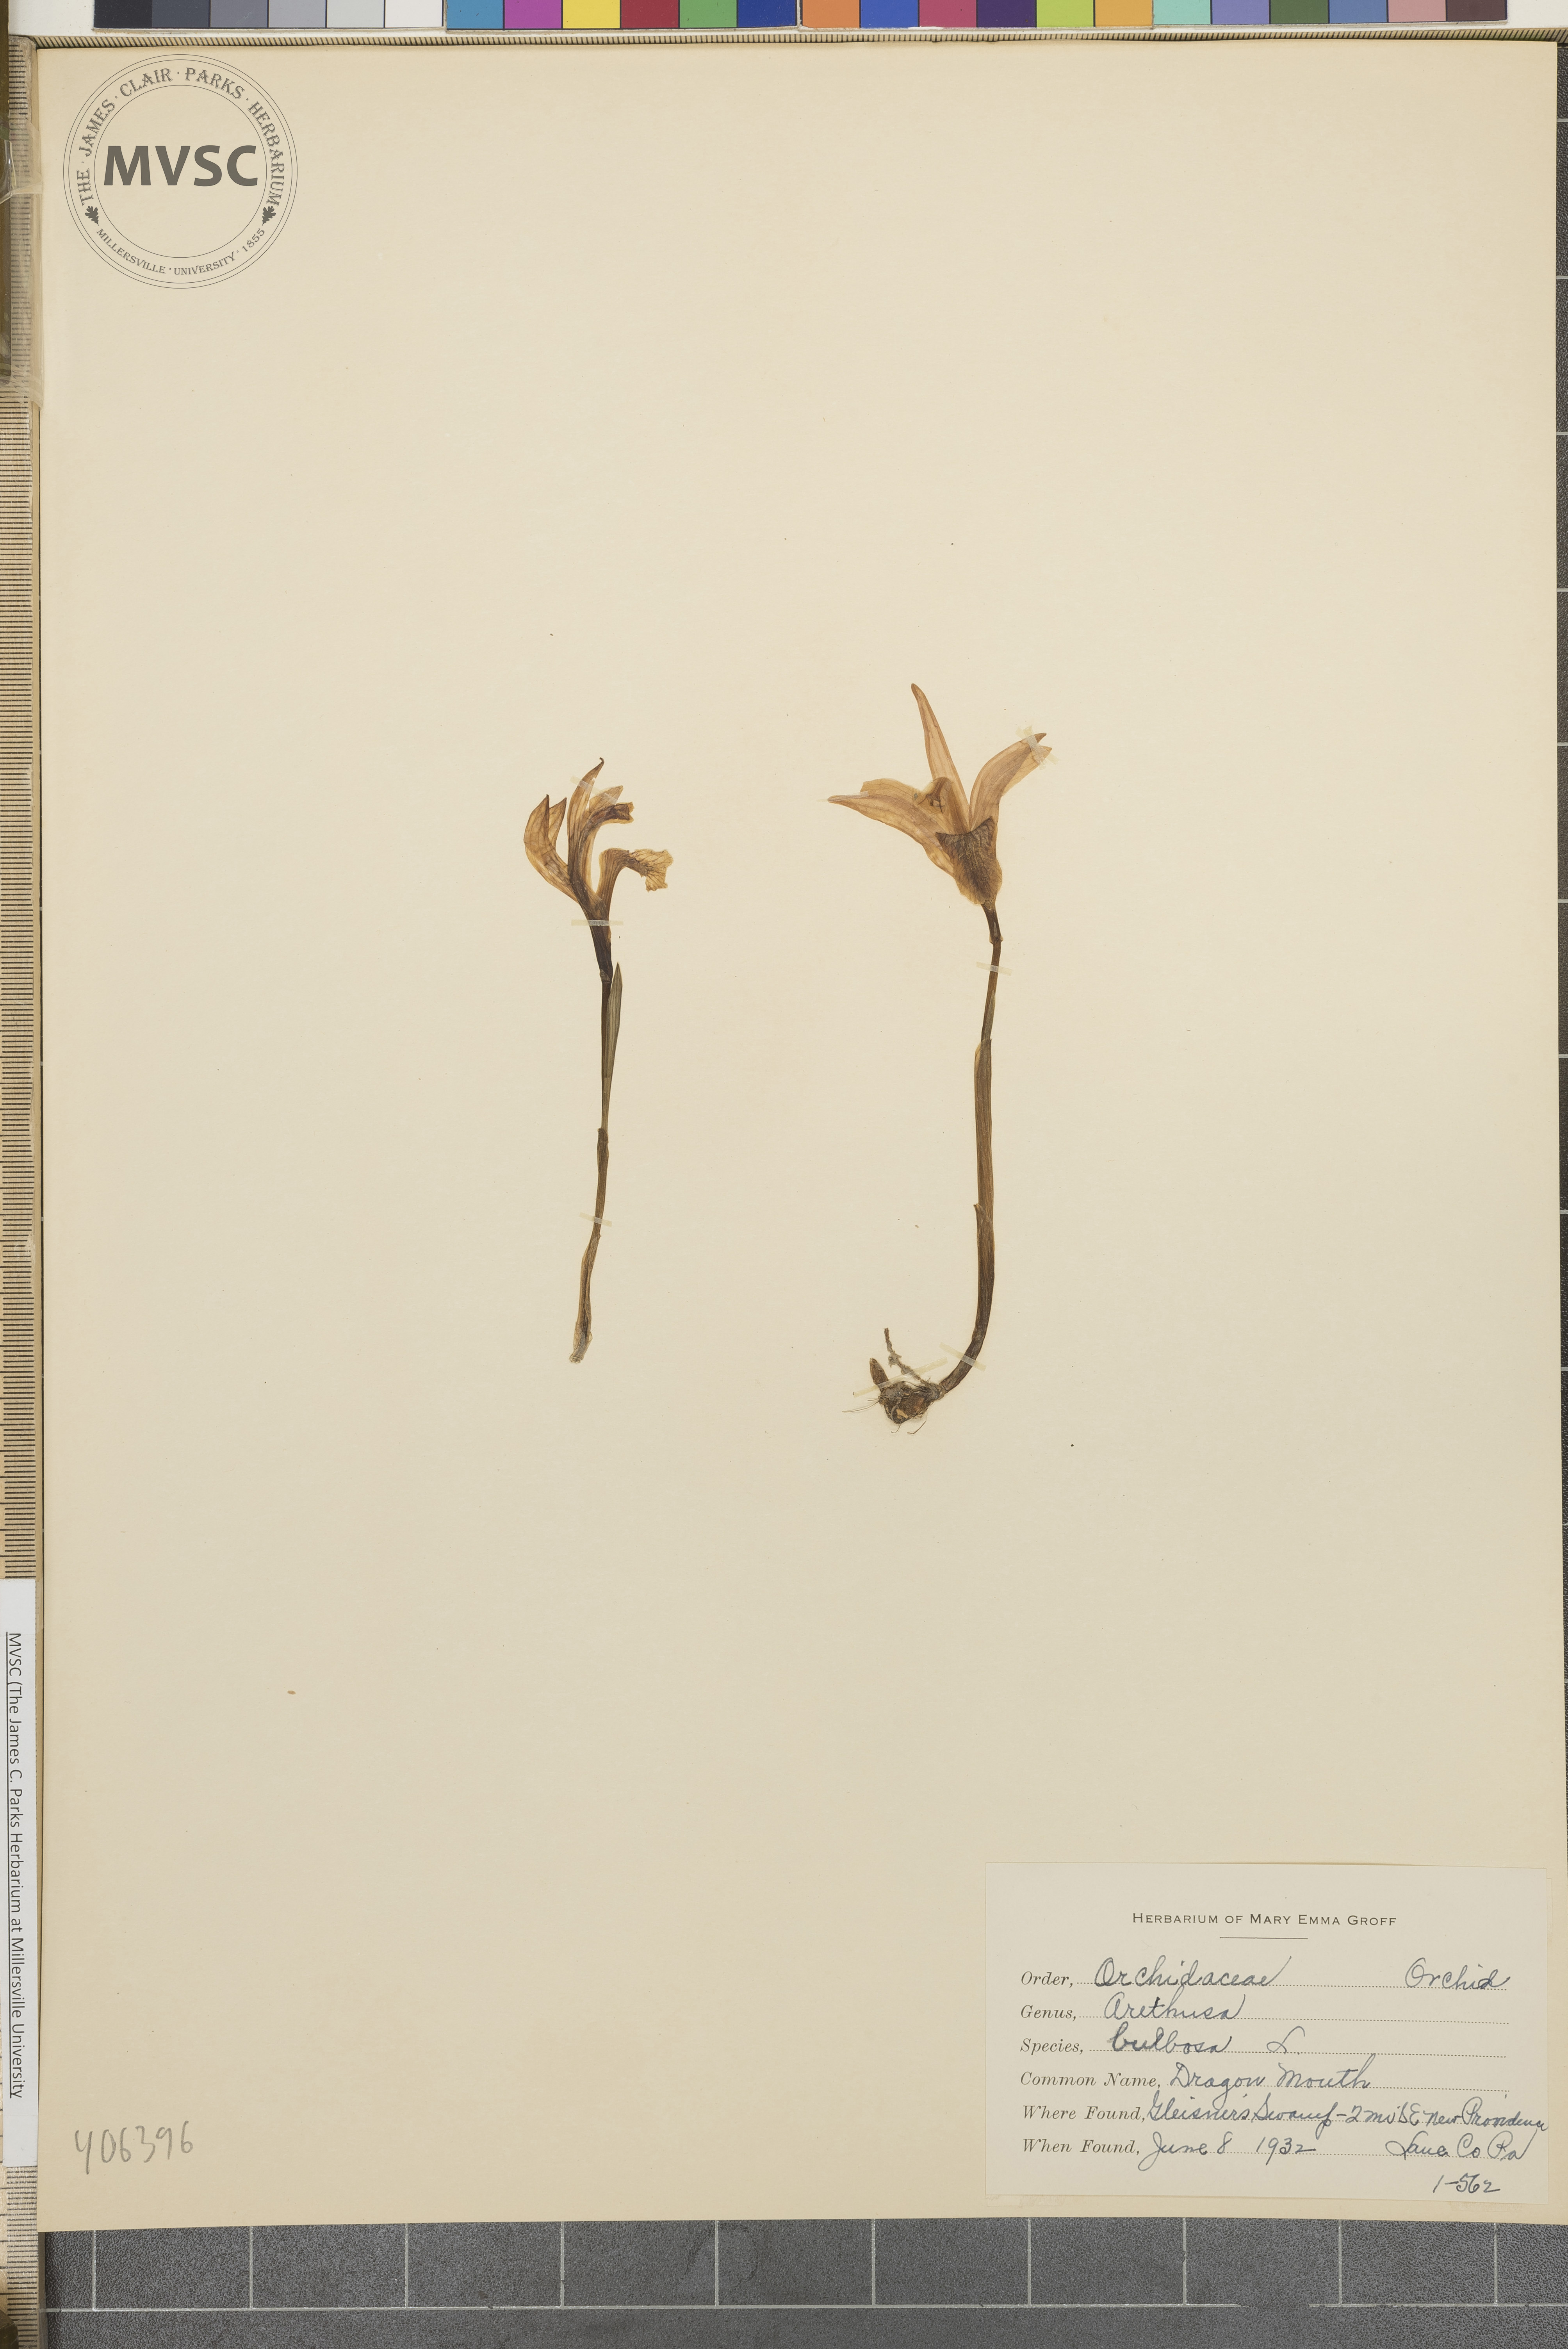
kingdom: Plantae
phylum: Tracheophyta
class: Liliopsida
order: Asparagales
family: Orchidaceae
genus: Arethusa
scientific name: Arethusa bulbosa
